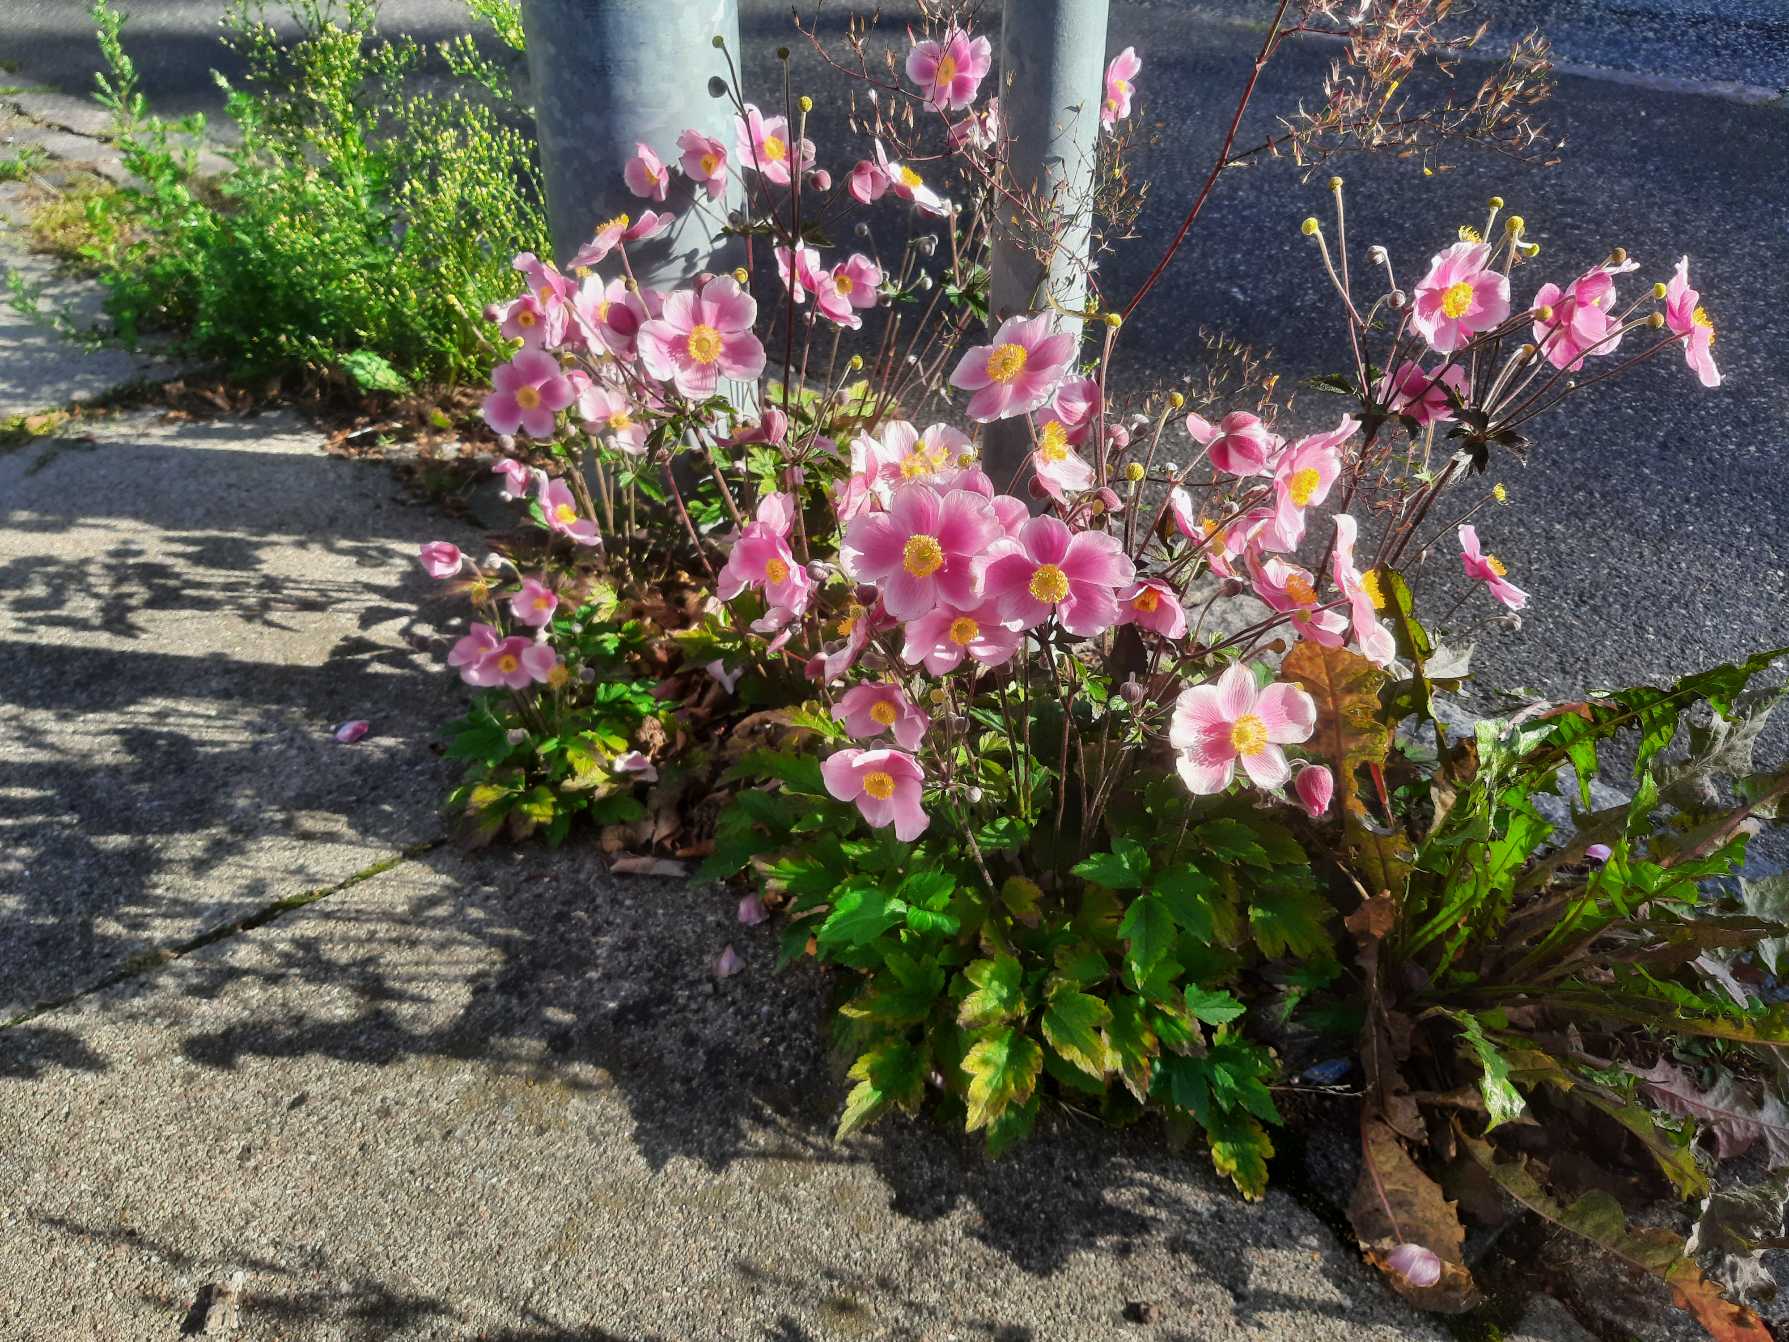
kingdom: Plantae
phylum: Tracheophyta
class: Magnoliopsida
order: Ranunculales
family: Ranunculaceae
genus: Eriocapitella
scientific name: Eriocapitella hupehensis
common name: Høst-anemone
